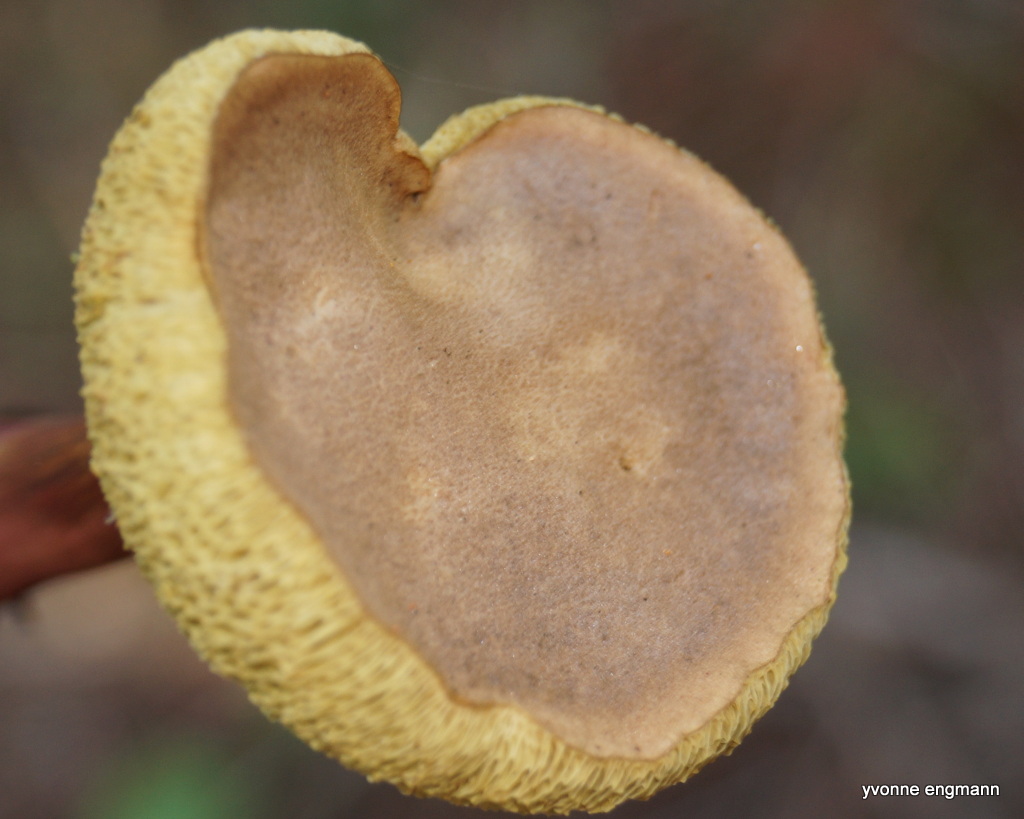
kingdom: Fungi
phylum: Basidiomycota
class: Agaricomycetes
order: Boletales
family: Boletaceae
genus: Xerocomellus
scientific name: Xerocomellus chrysenteron
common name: rødsprukken rørhat
